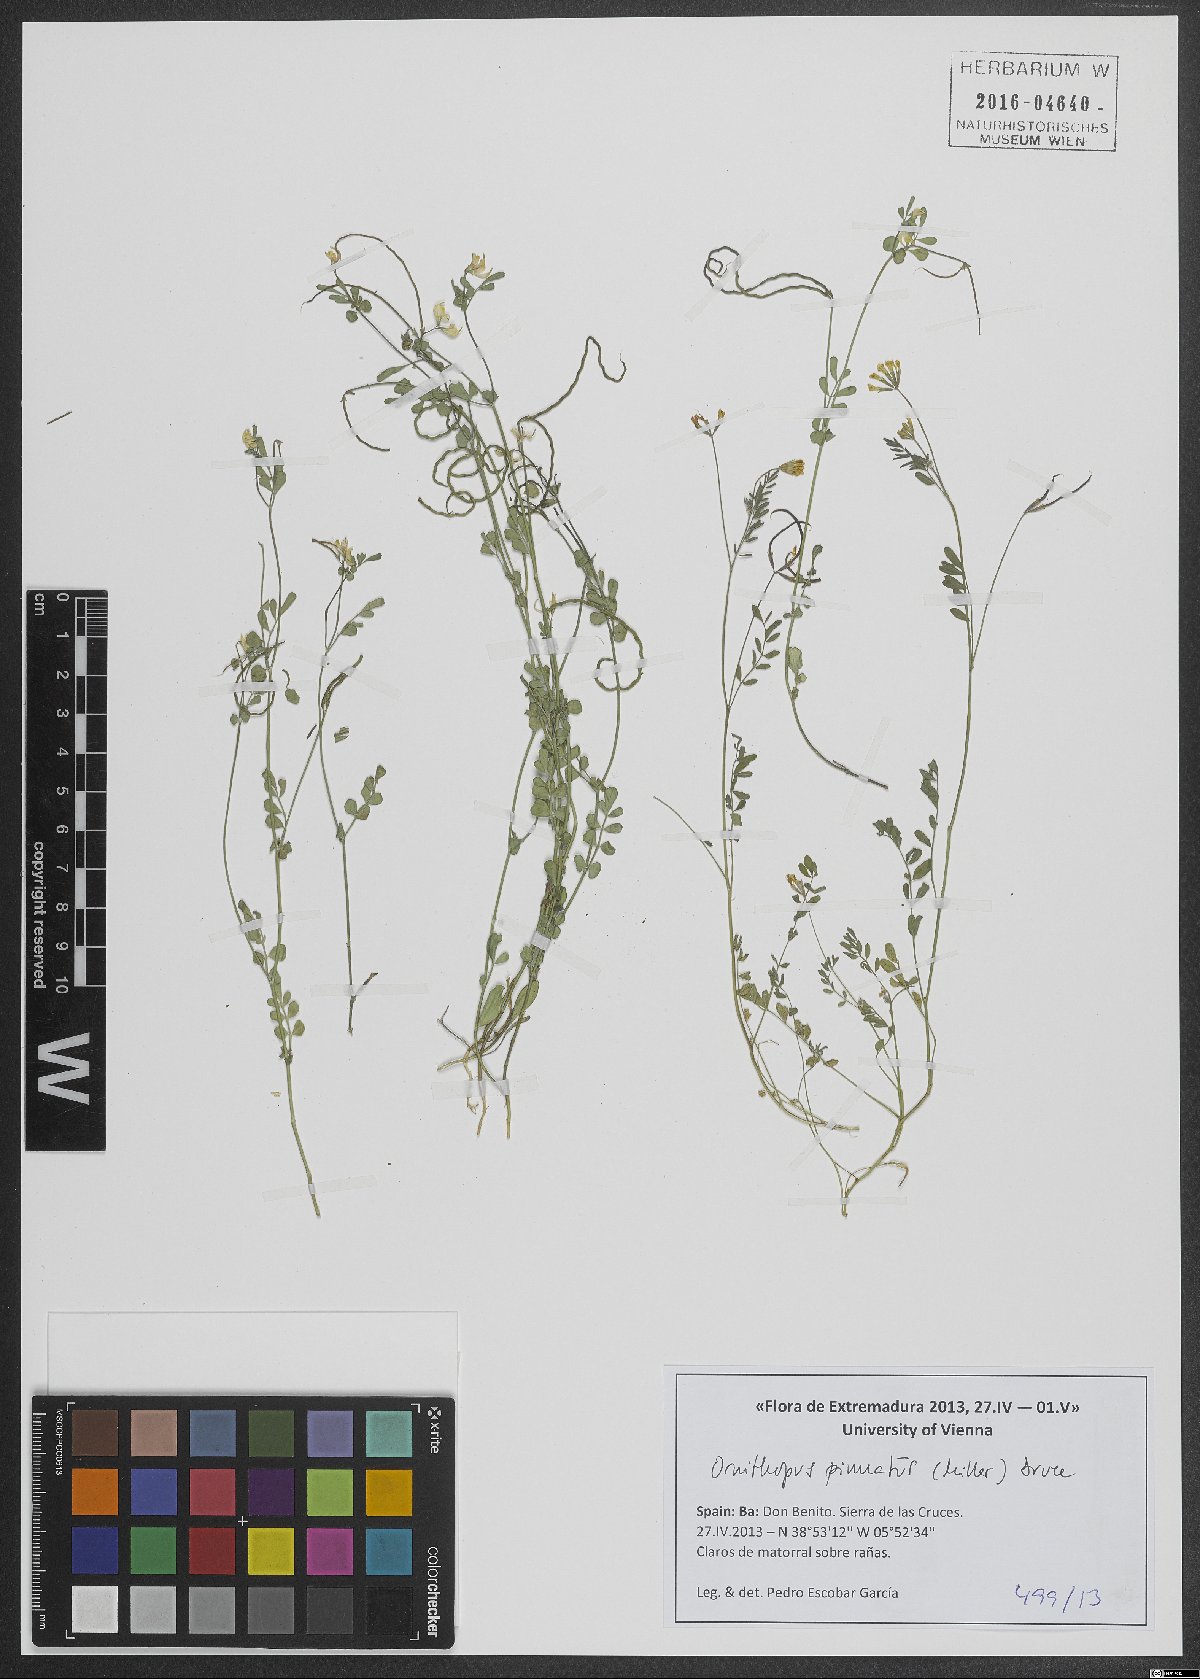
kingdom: Plantae
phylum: Tracheophyta
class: Magnoliopsida
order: Fabales
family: Fabaceae
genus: Ornithopus
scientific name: Ornithopus pinnatus
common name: Orange bird's-foot
